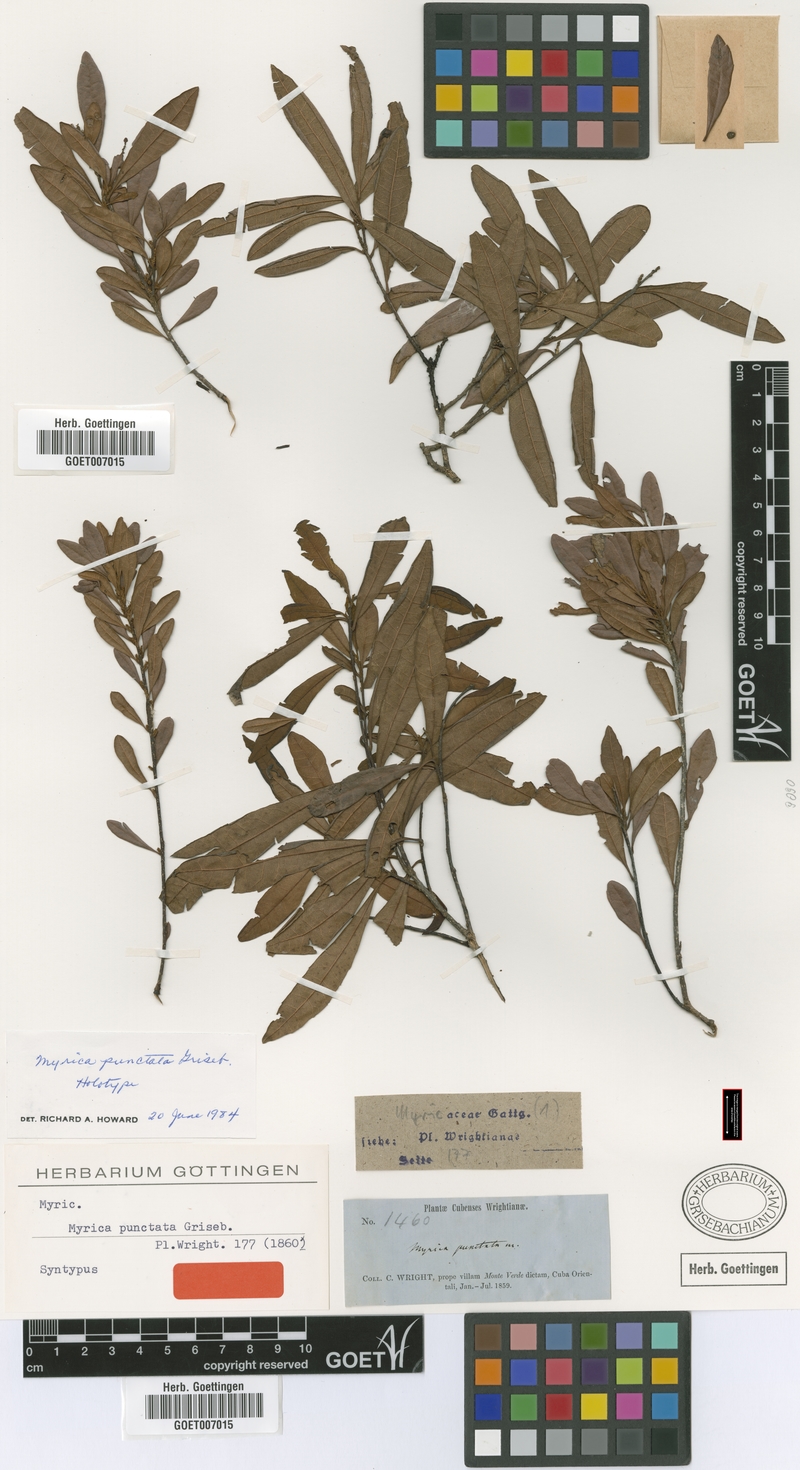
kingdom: Plantae
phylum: Tracheophyta
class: Magnoliopsida
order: Fagales
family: Myricaceae
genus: Morella
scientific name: Morella punctata
